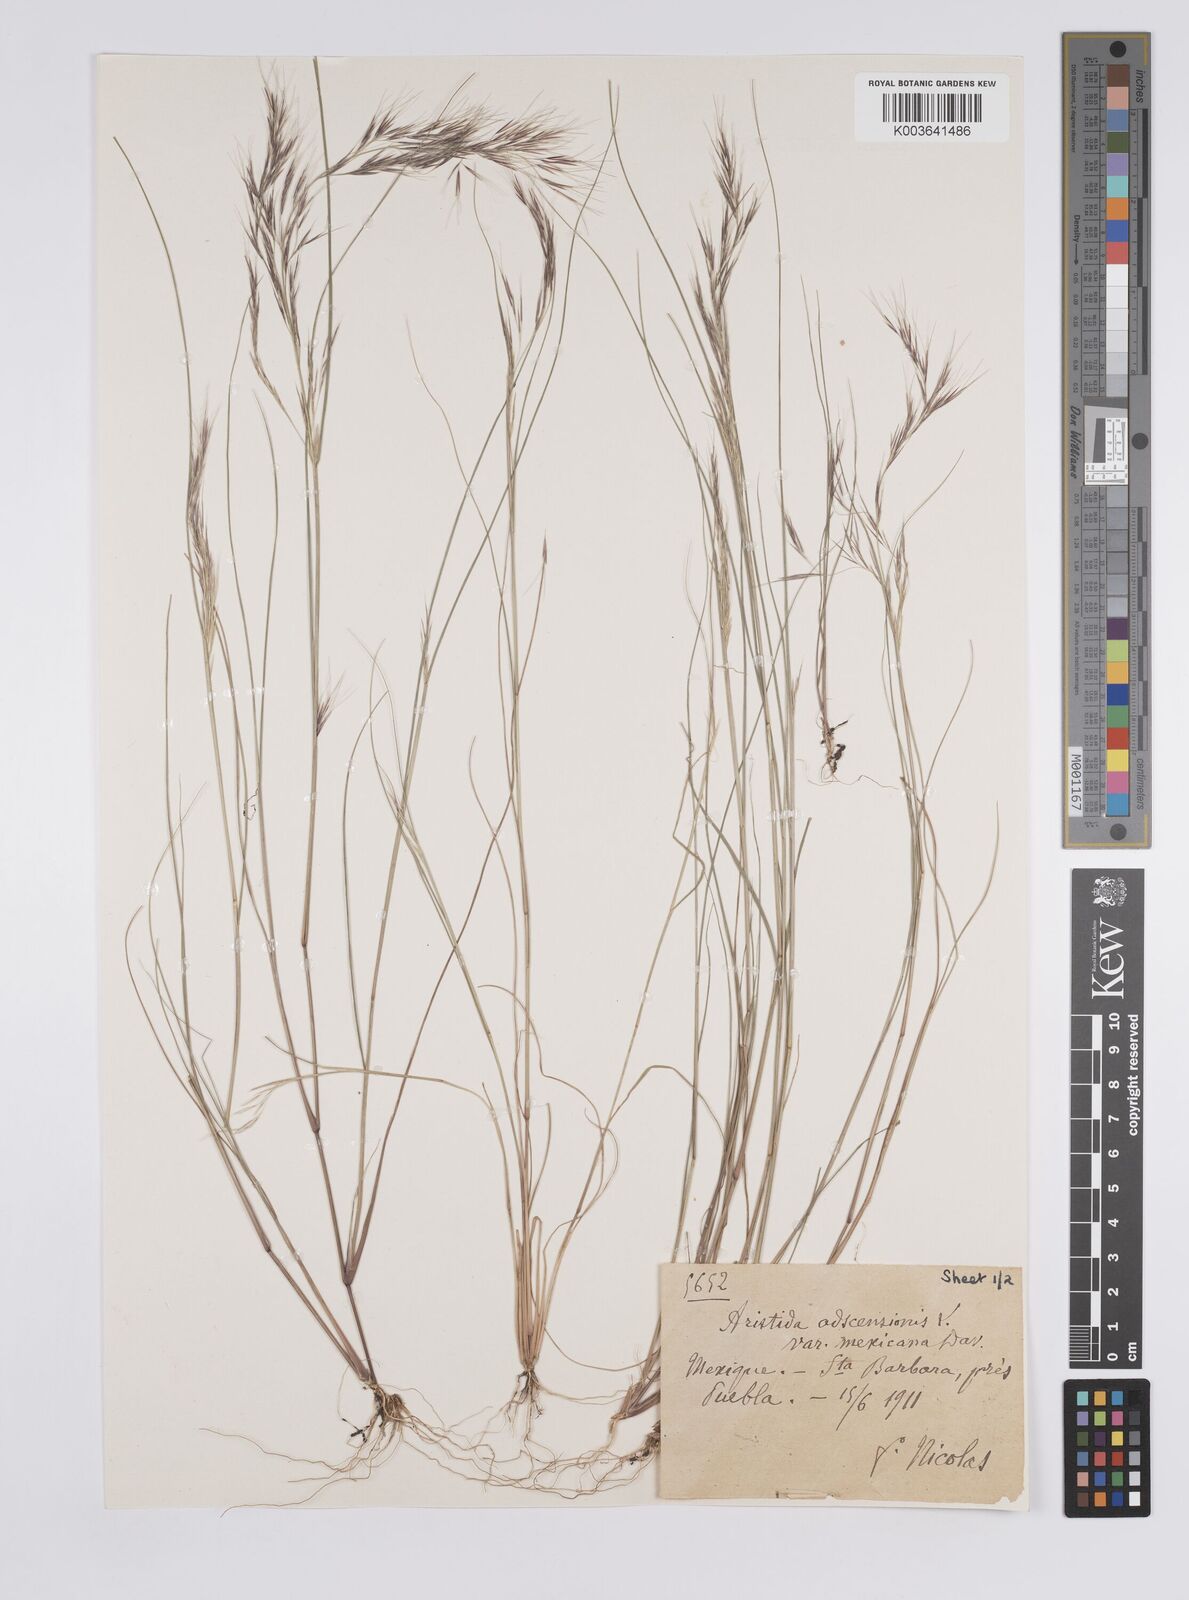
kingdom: Plantae
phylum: Tracheophyta
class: Liliopsida
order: Poales
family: Poaceae
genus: Aristida
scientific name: Aristida adscensionis
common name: Sixweeks threeawn
